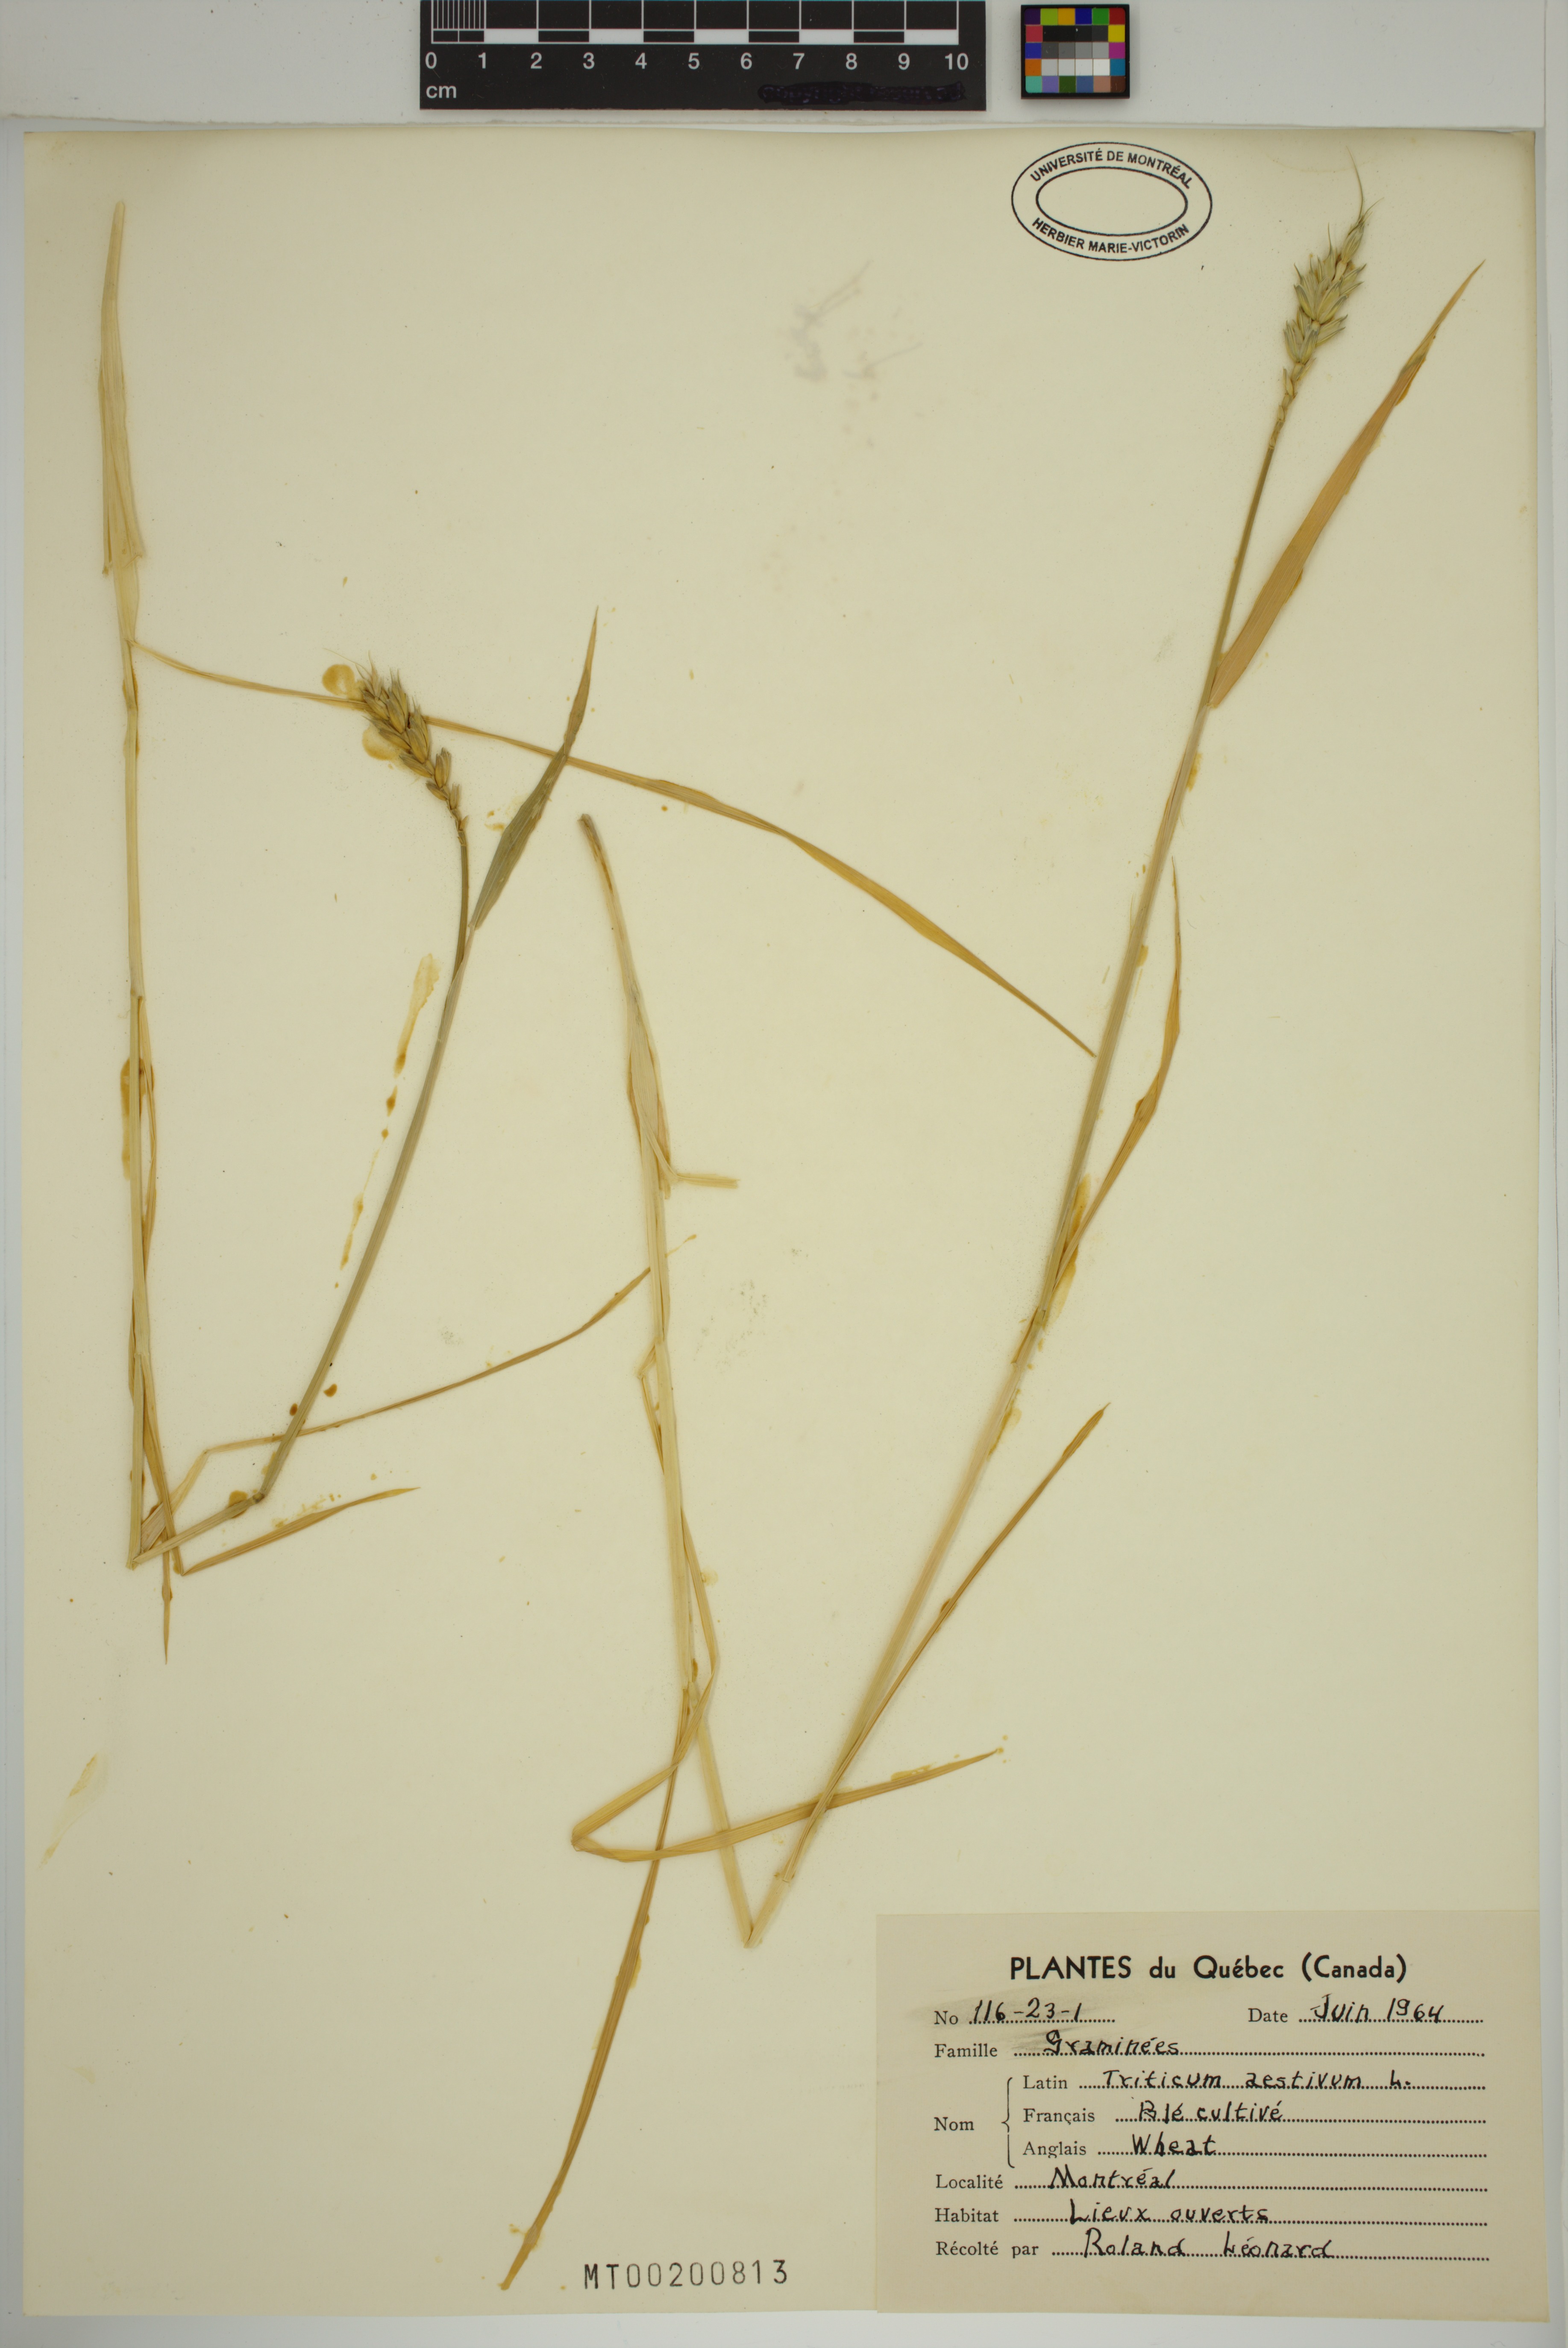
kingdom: Plantae
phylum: Tracheophyta
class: Liliopsida
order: Poales
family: Poaceae
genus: Triticum
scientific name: Triticum aestivum
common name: Common wheat
